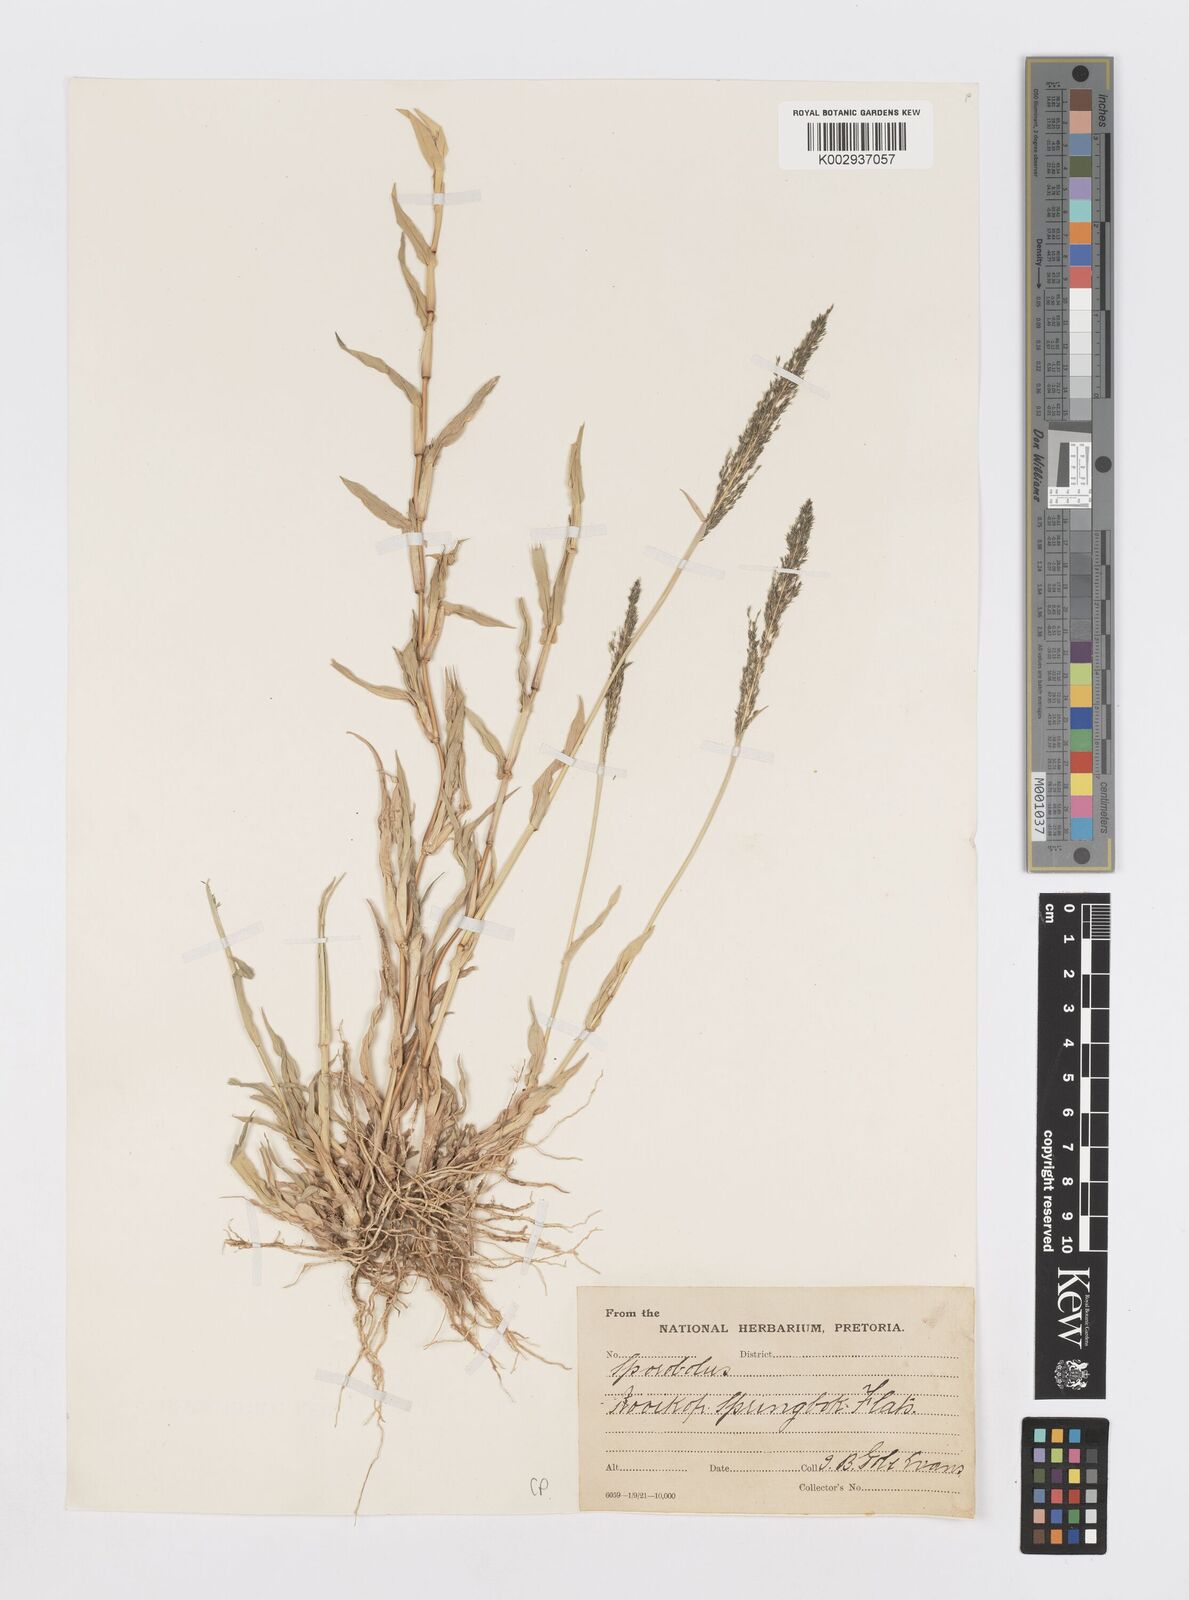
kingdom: Plantae
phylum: Tracheophyta
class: Liliopsida
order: Poales
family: Poaceae
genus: Sporobolus
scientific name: Sporobolus
